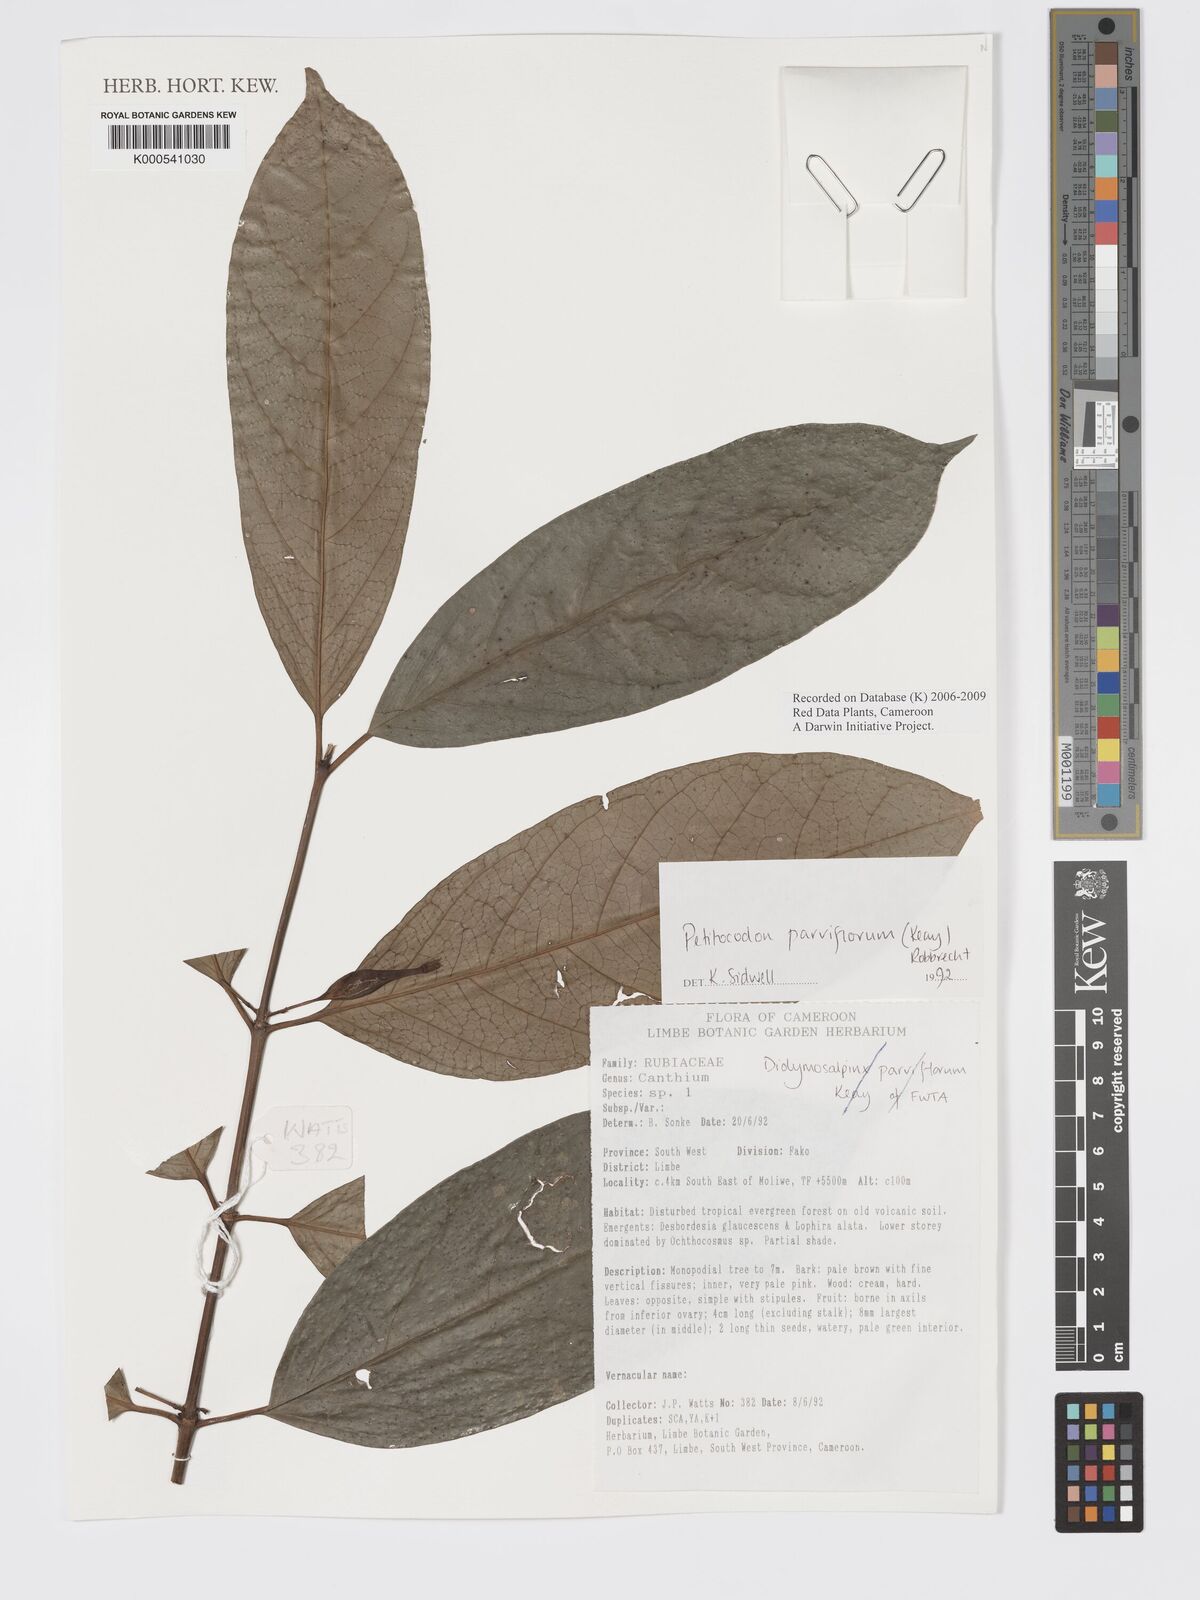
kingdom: Plantae
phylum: Tracheophyta
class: Magnoliopsida
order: Gentianales
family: Rubiaceae
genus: Petitiocodon
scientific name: Petitiocodon parviflorum
